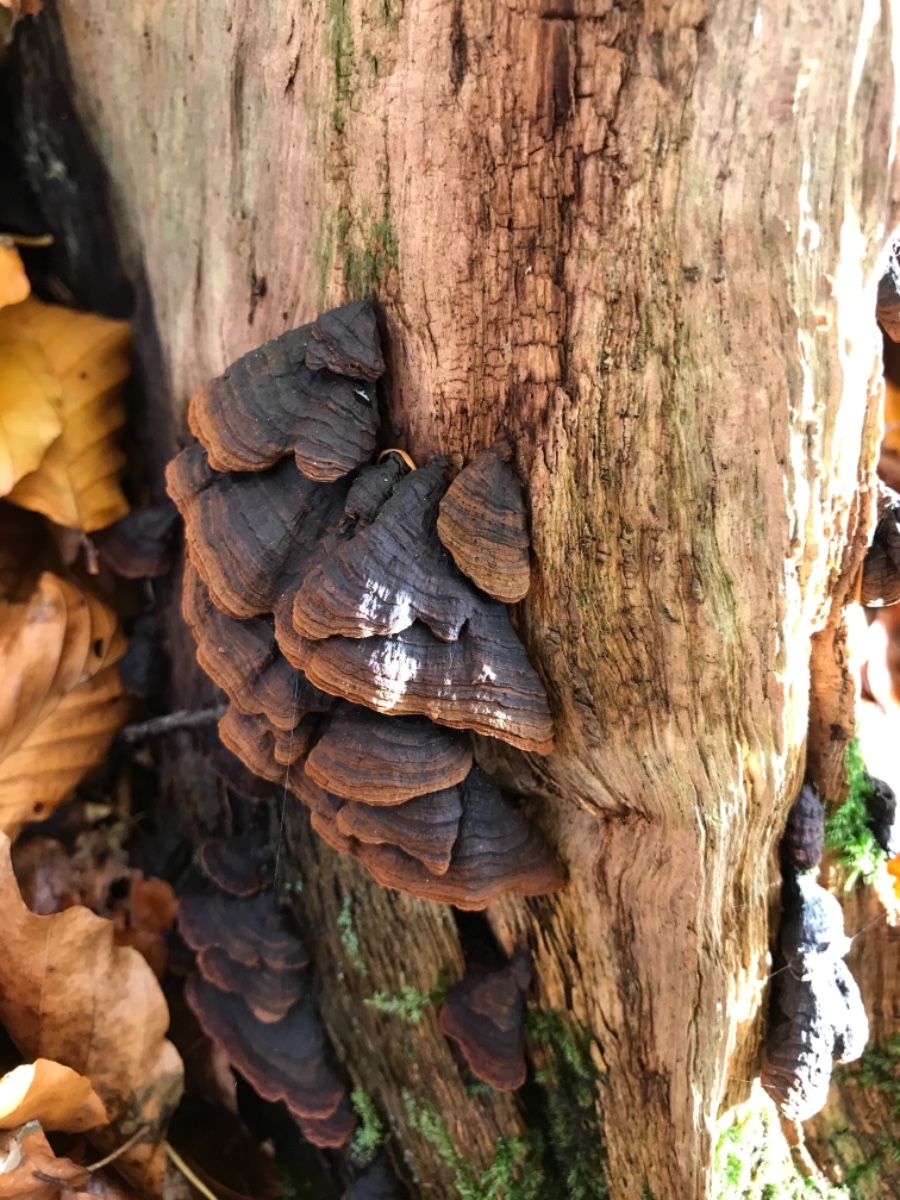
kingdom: Fungi
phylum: Basidiomycota
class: Agaricomycetes
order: Hymenochaetales
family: Hymenochaetaceae
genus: Hymenochaete
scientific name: Hymenochaete rubiginosa
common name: stiv ruslædersvamp
